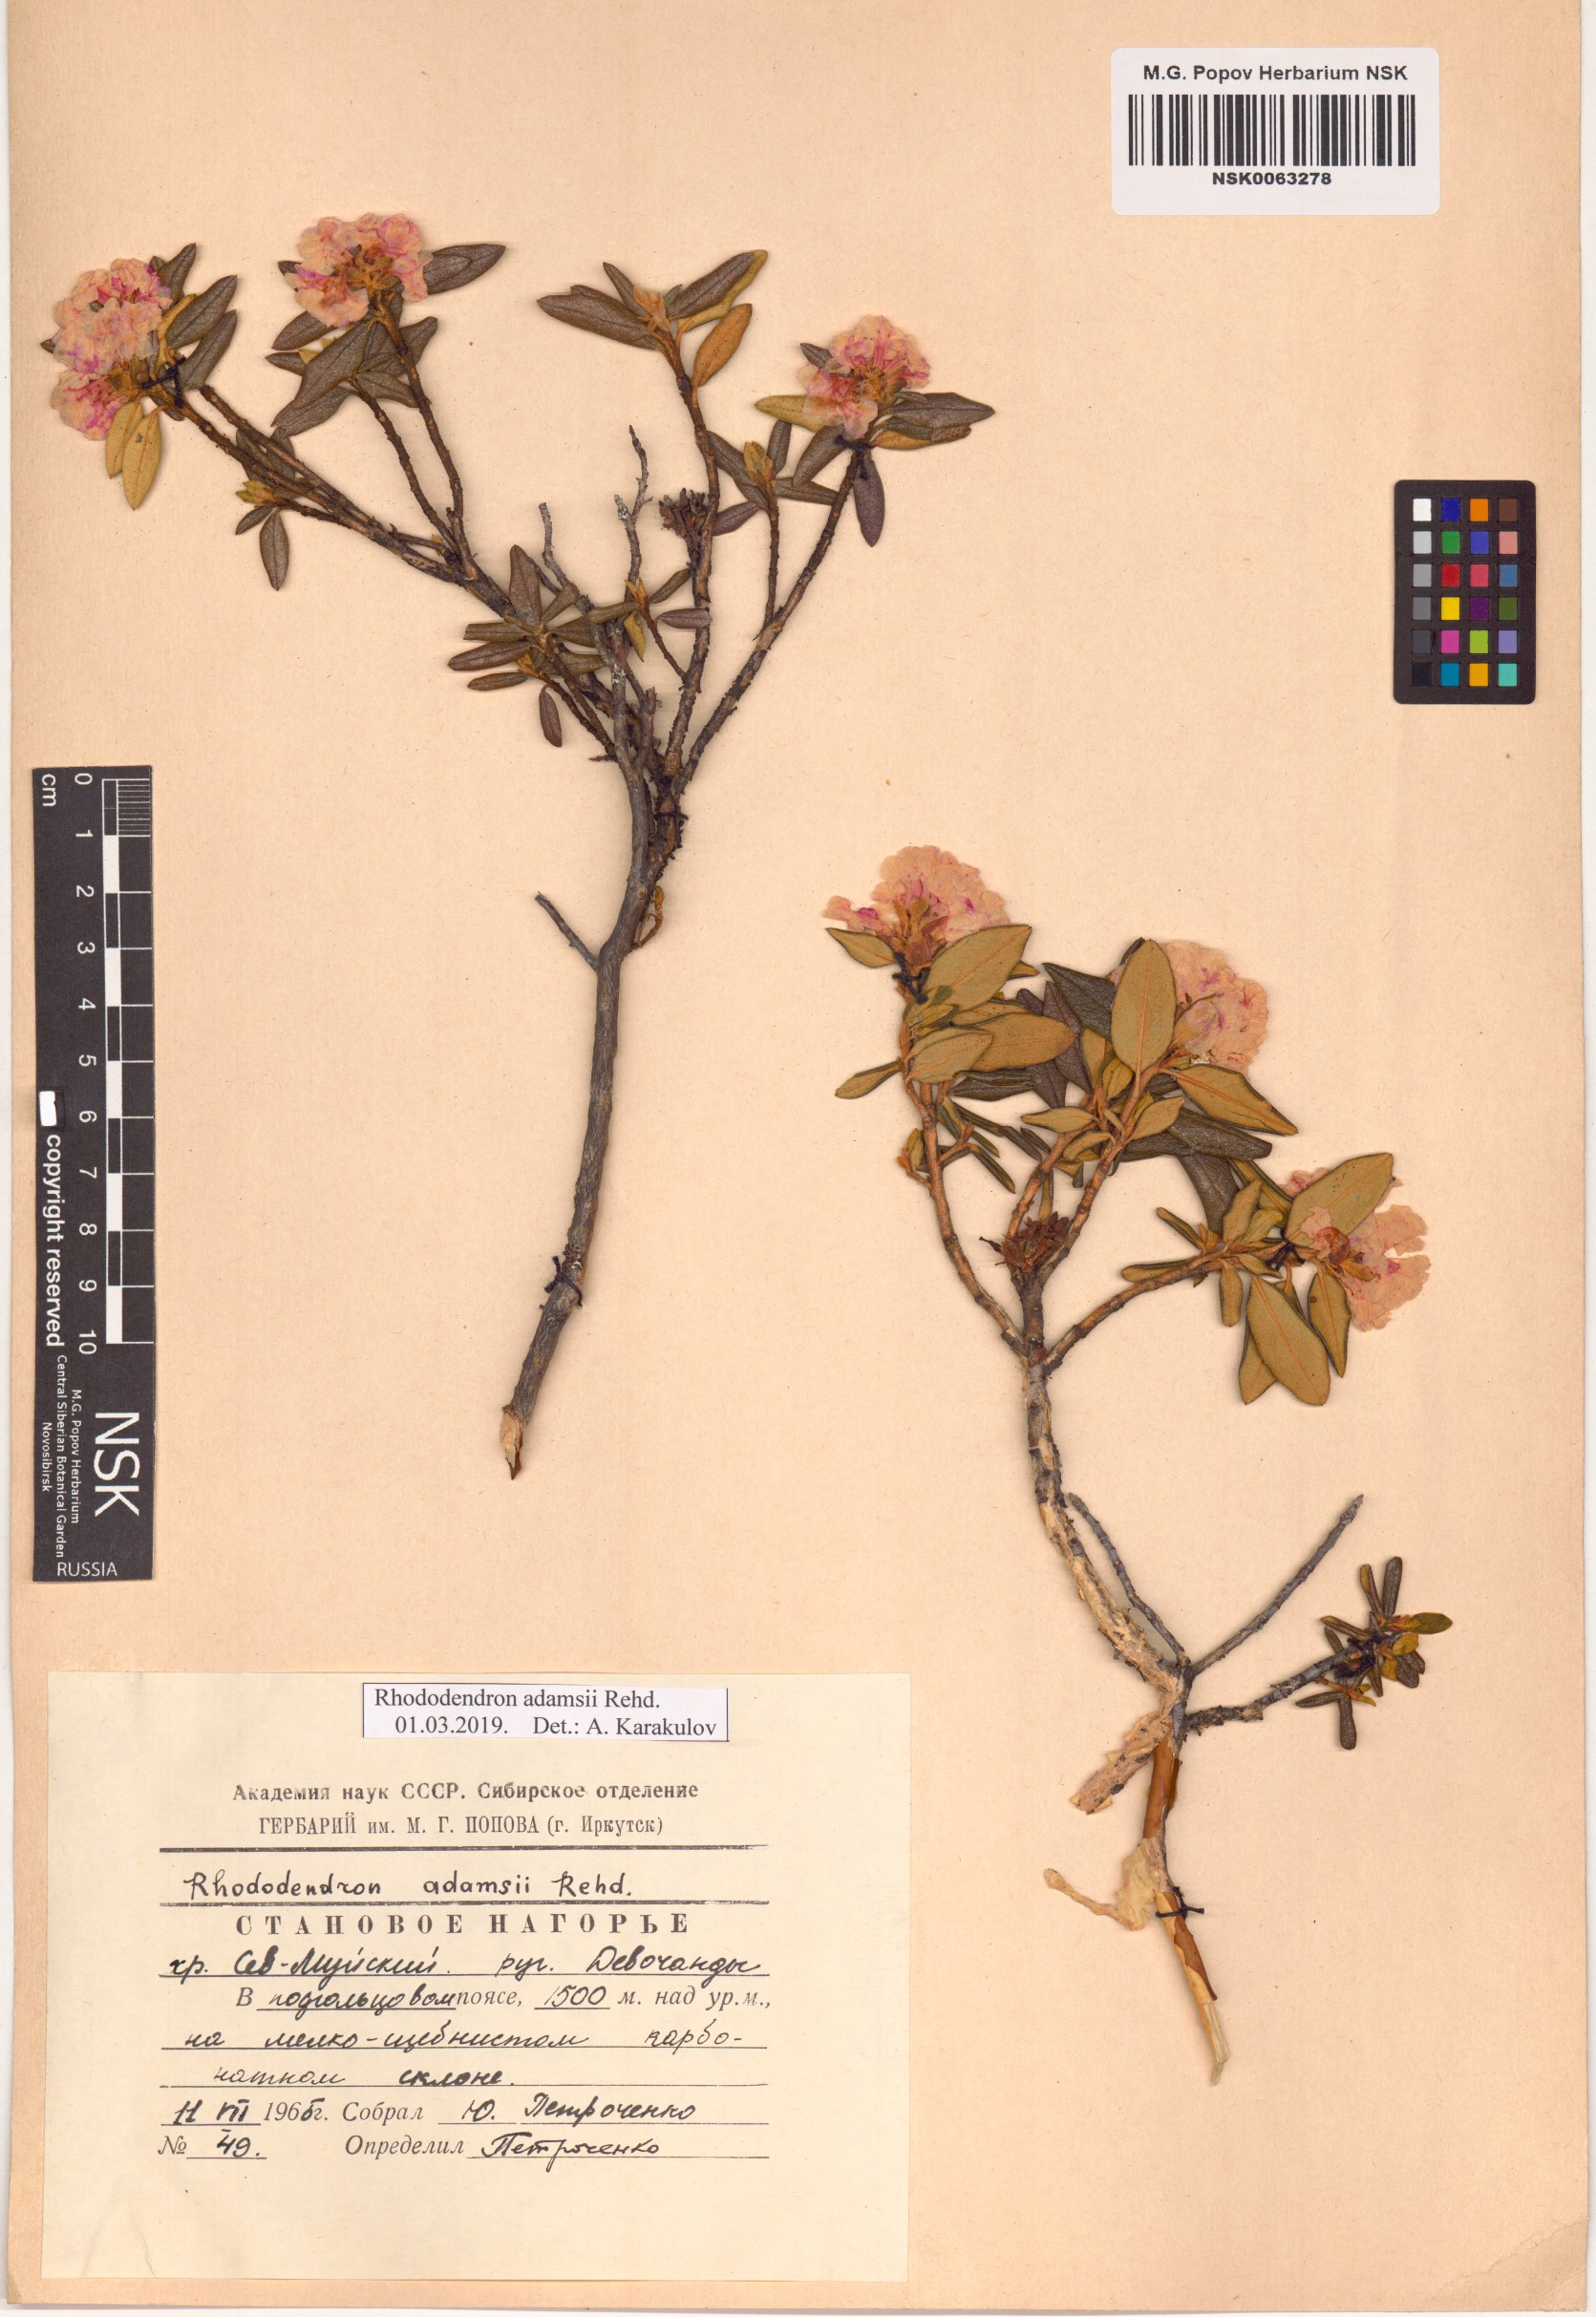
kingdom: Plantae
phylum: Tracheophyta
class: Magnoliopsida
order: Ericales
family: Ericaceae
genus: Rhododendron
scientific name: Rhododendron adamsii
